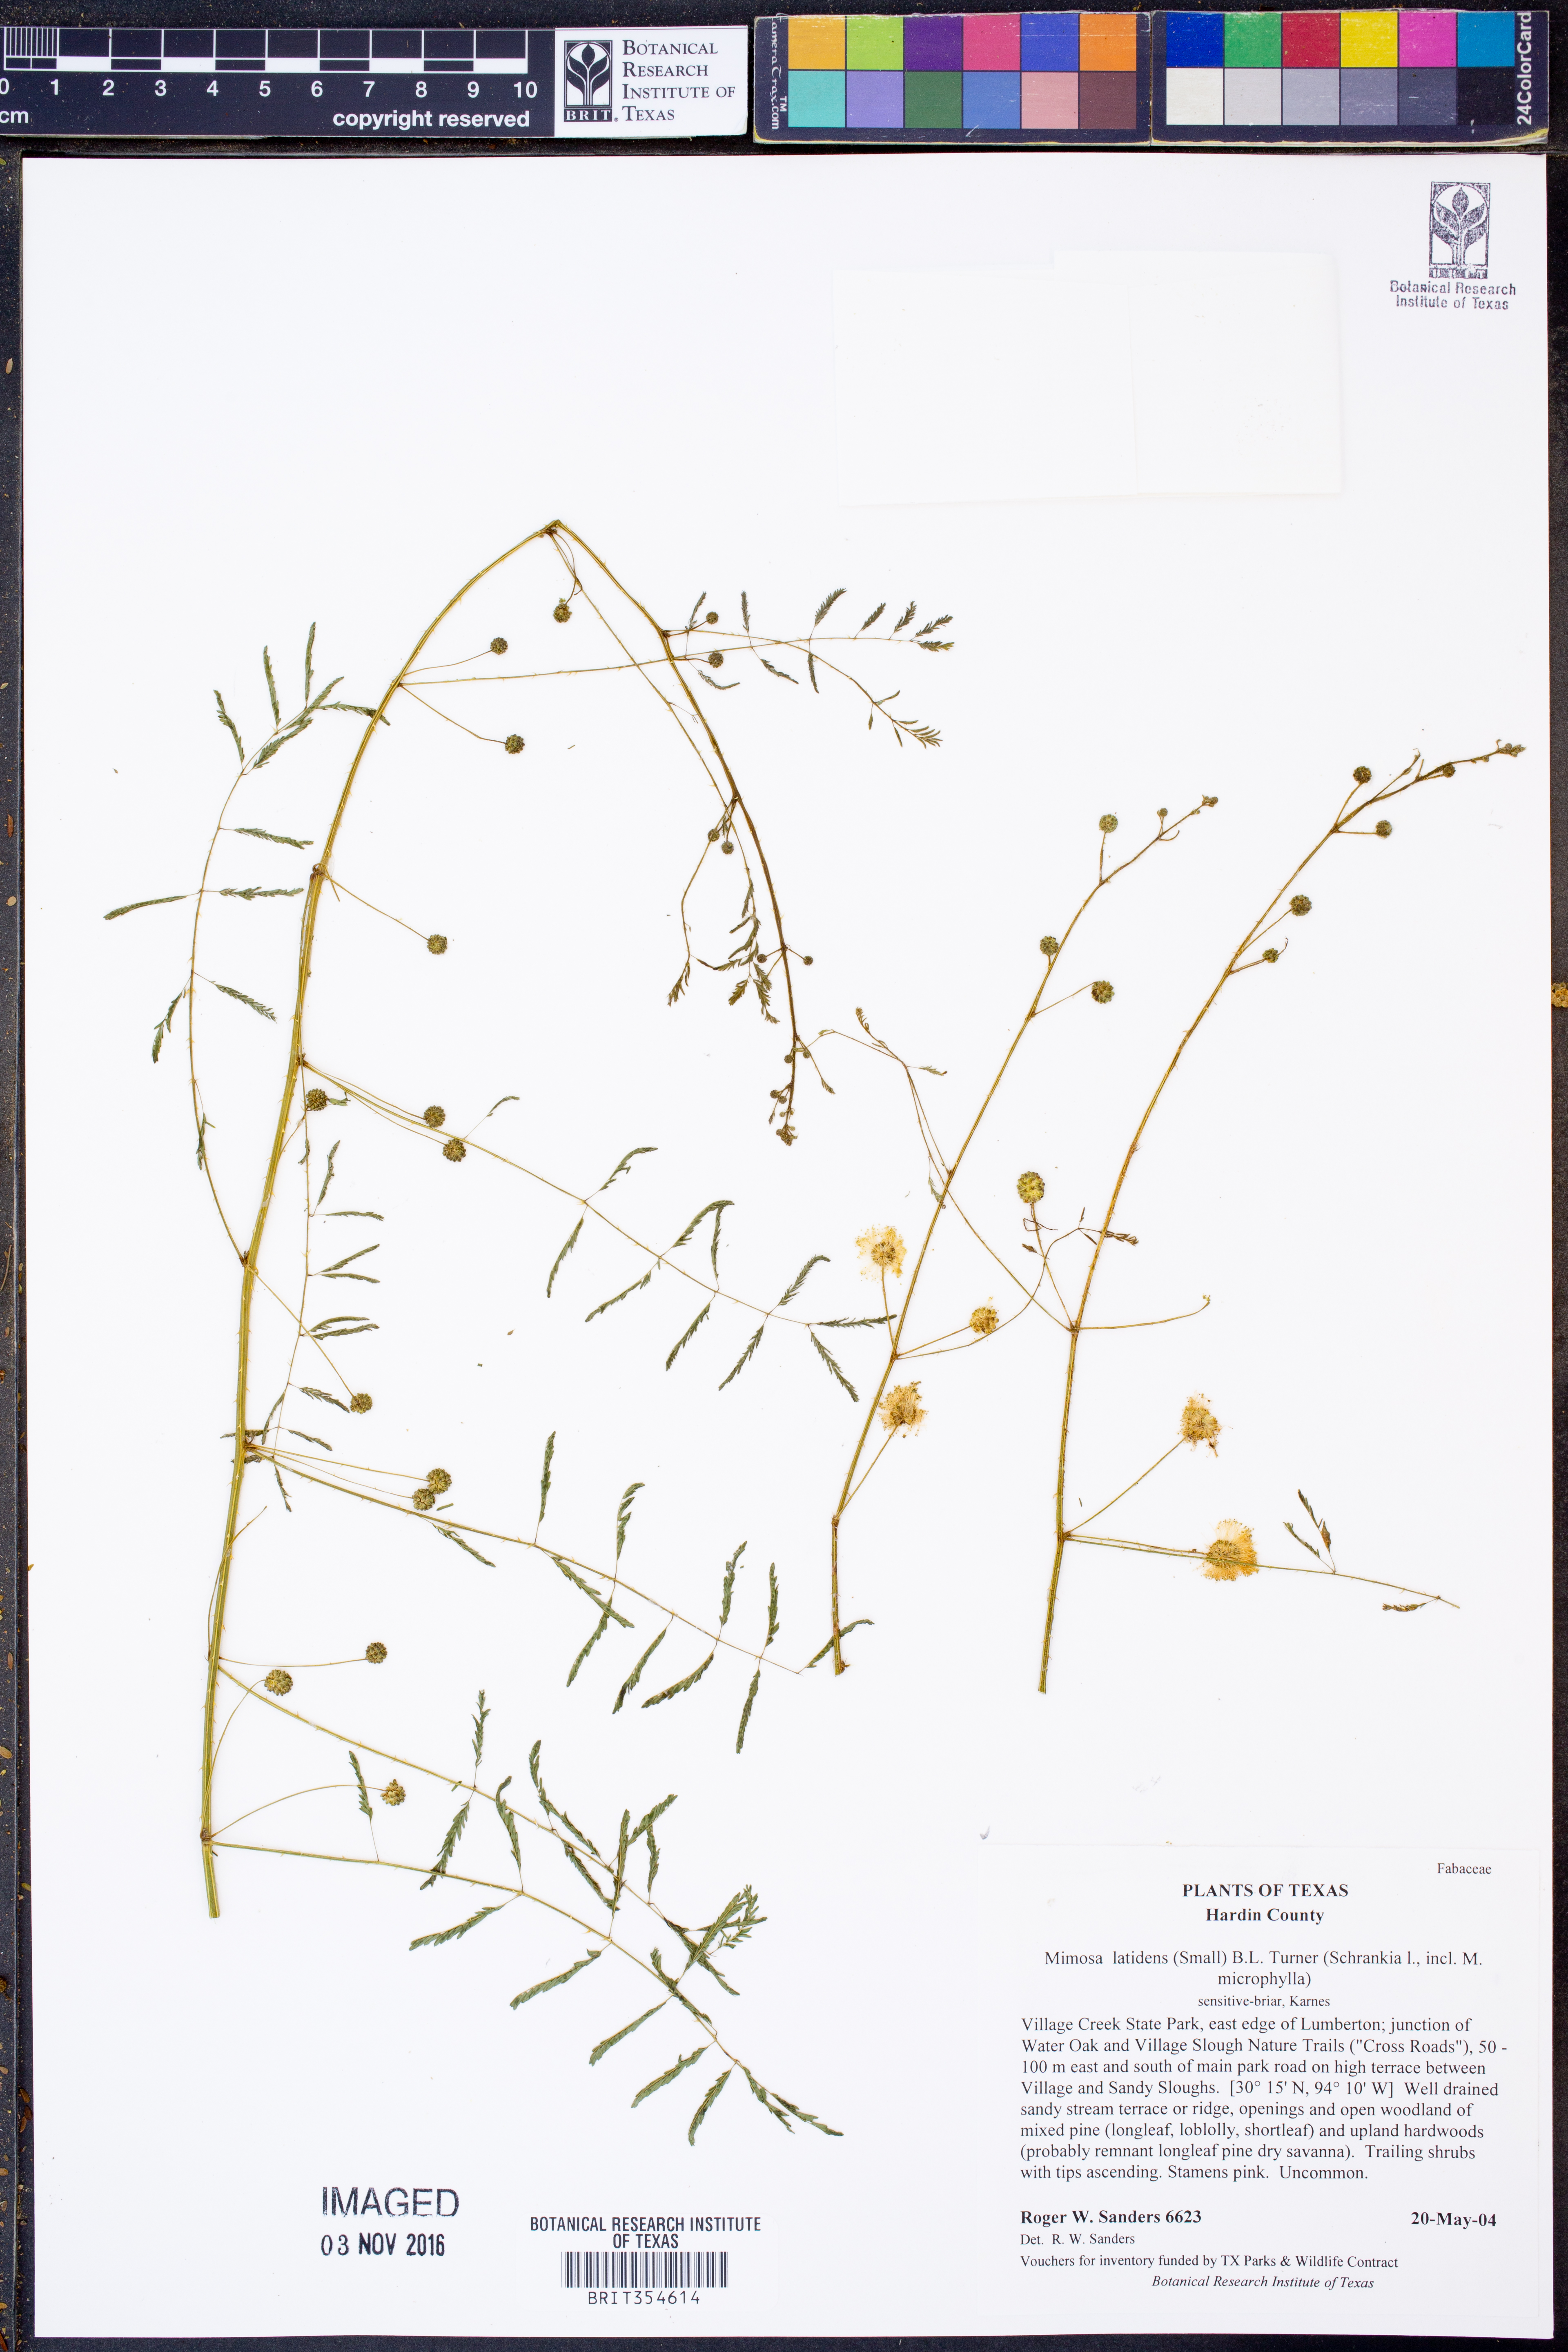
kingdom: Plantae
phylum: Tracheophyta
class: Magnoliopsida
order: Fabales
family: Fabaceae
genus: Mimosa
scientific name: Mimosa latidens
